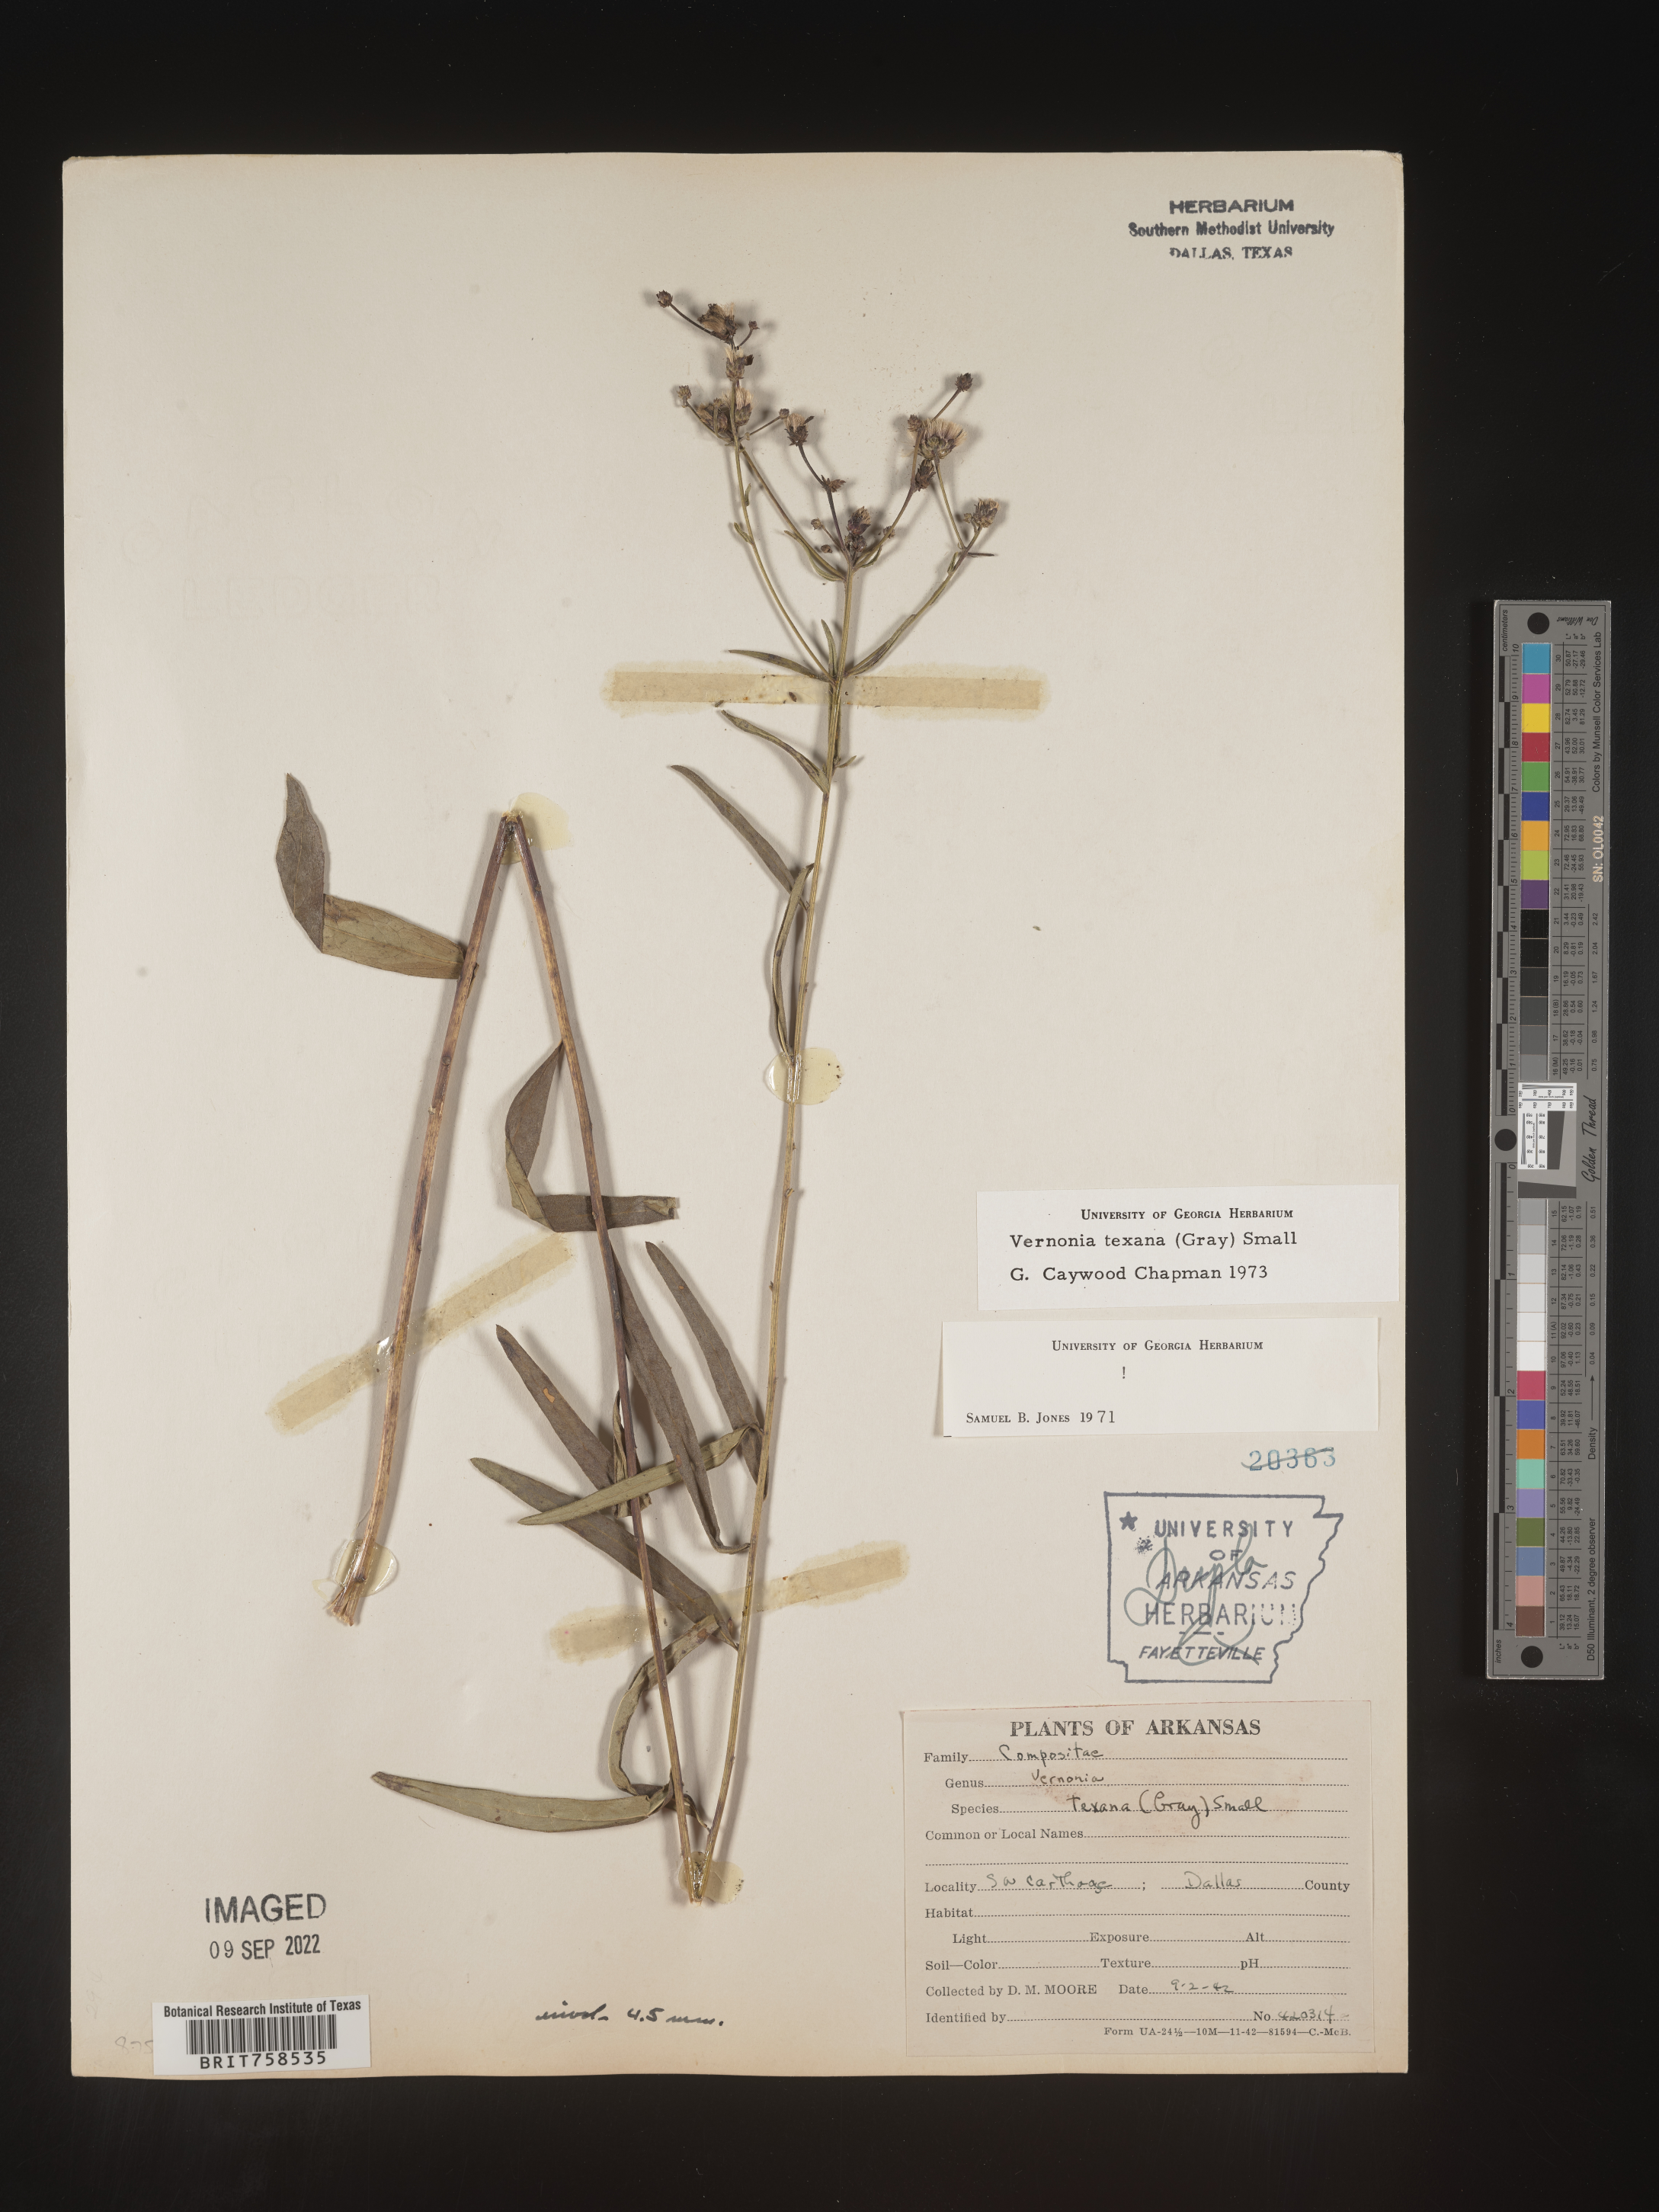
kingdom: Plantae
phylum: Tracheophyta
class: Magnoliopsida
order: Asterales
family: Asteraceae
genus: Vernonia
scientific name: Vernonia texana
